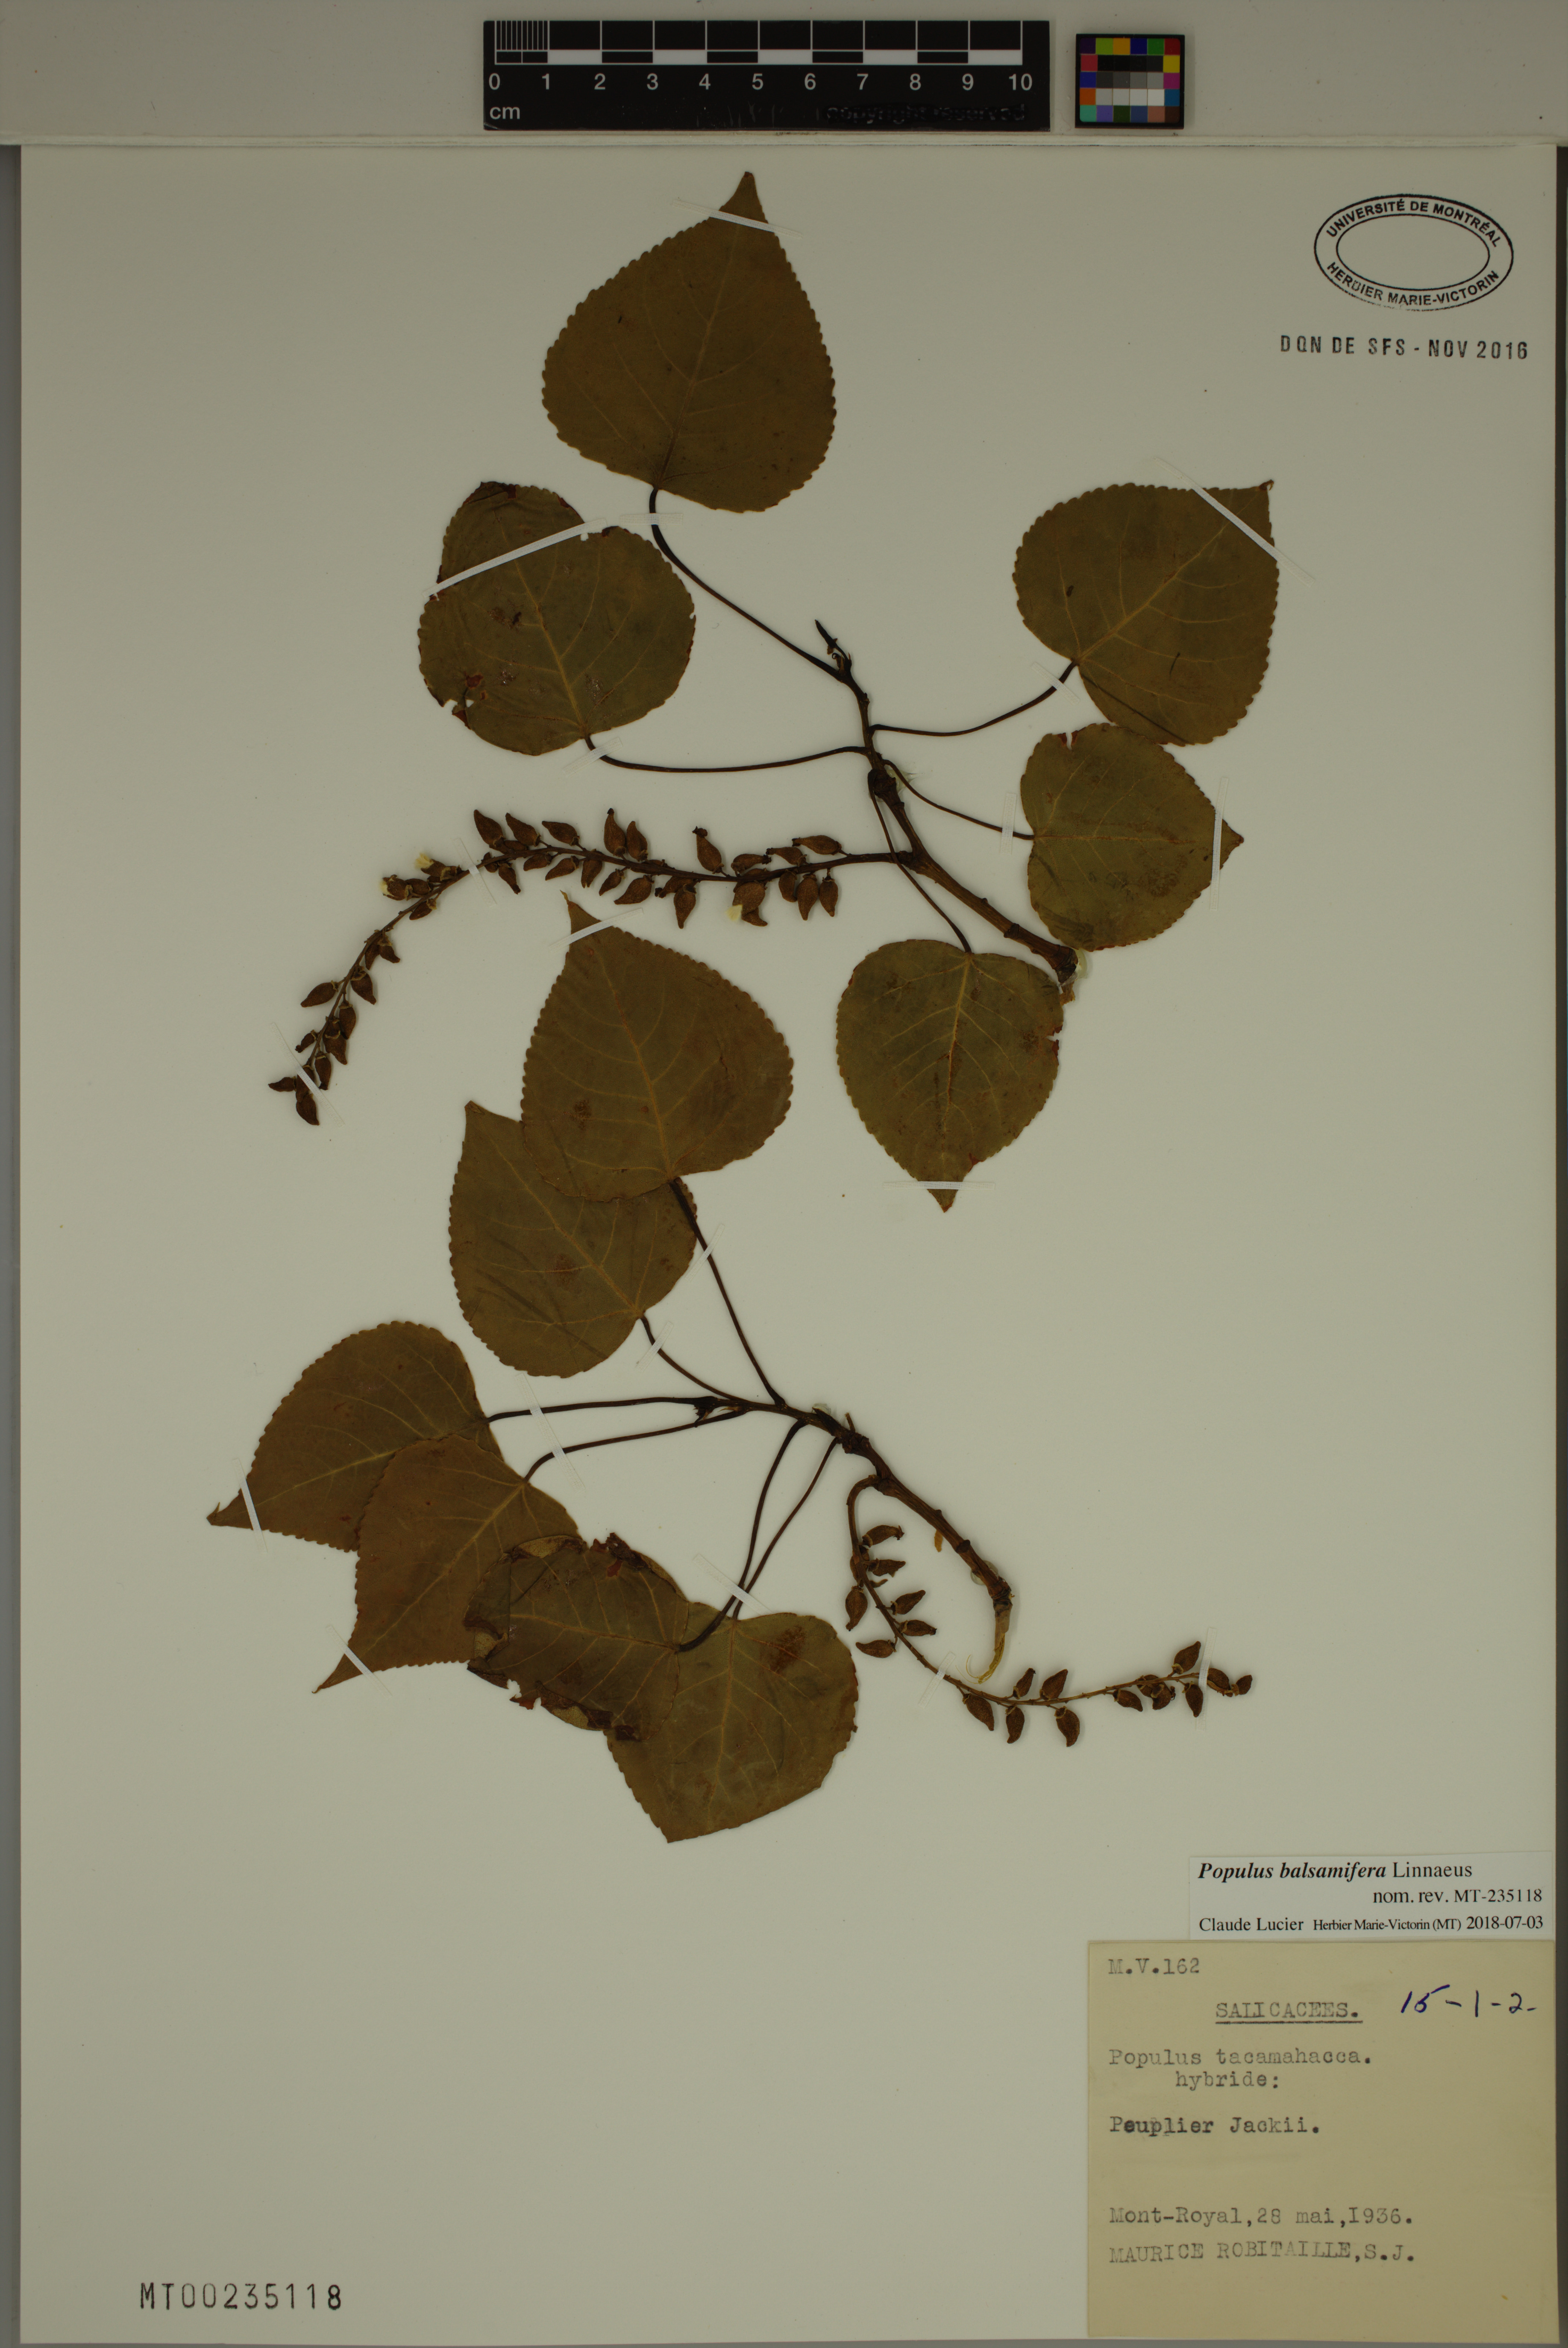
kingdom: Plantae
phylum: Tracheophyta
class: Magnoliopsida
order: Malpighiales
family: Salicaceae
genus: Populus
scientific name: Populus balsamifera
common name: Balsam poplar
